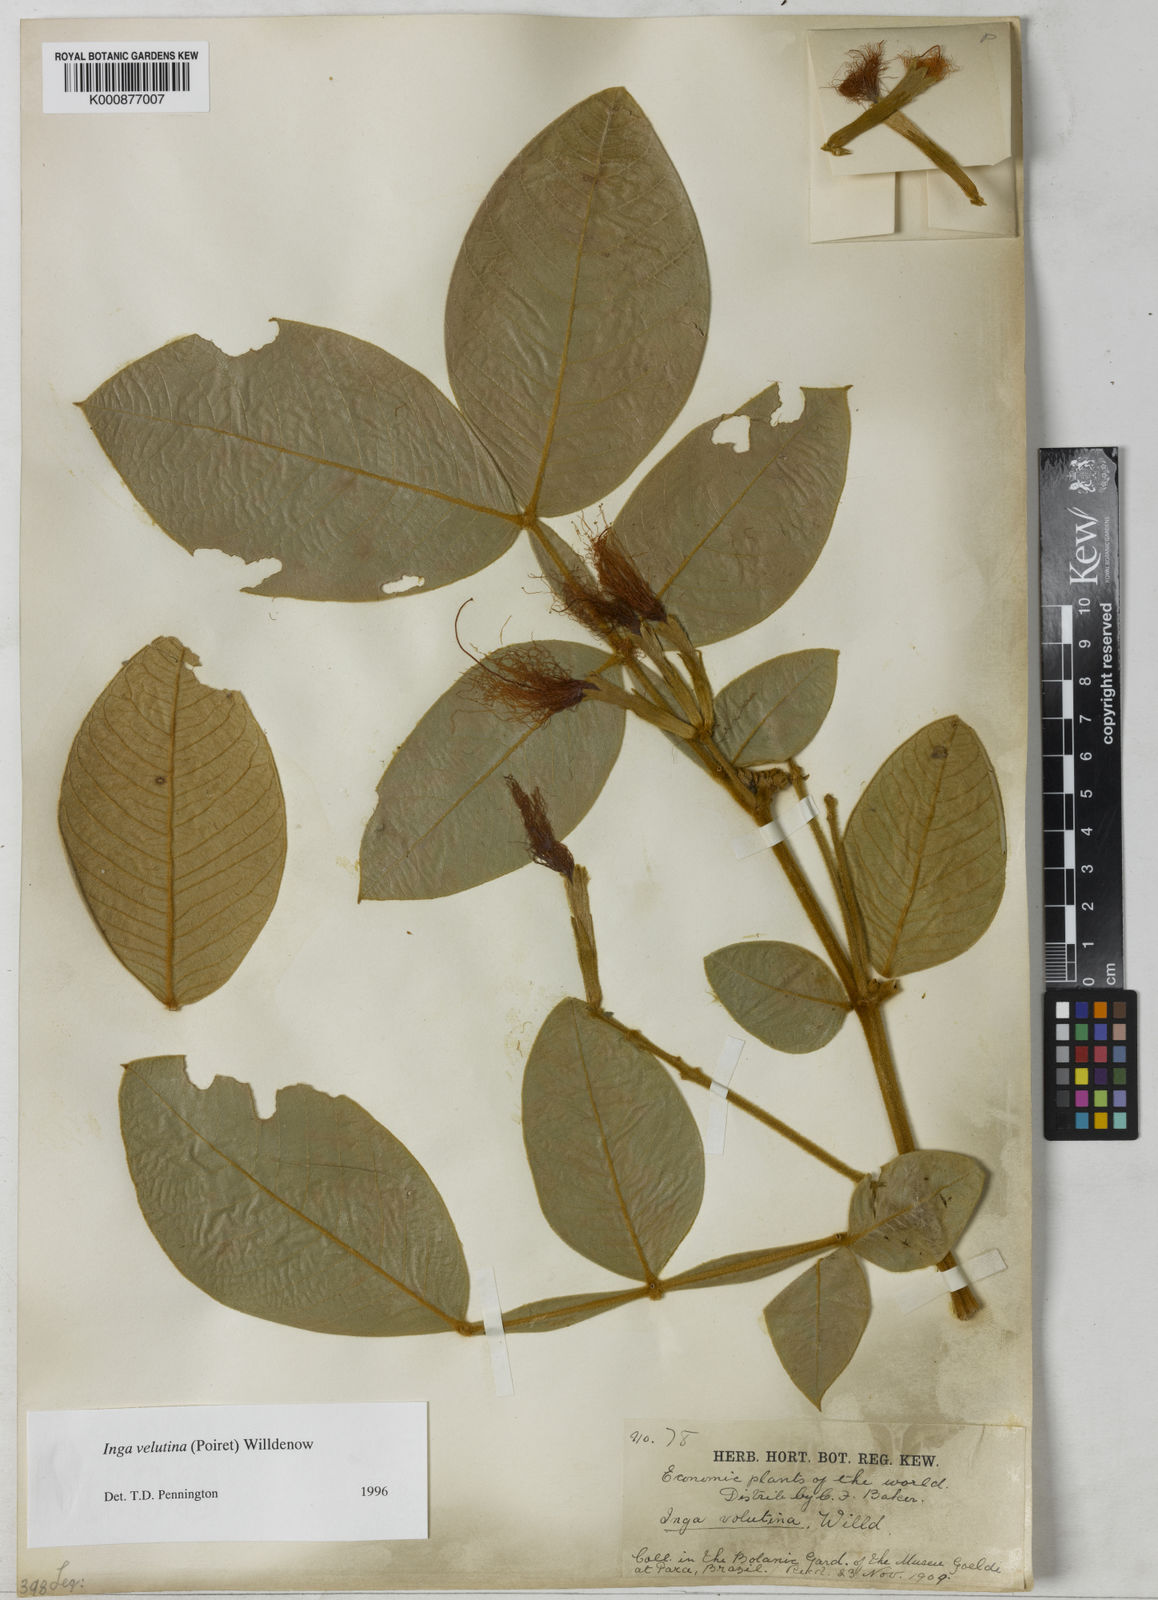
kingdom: Plantae
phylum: Tracheophyta
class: Magnoliopsida
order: Fabales
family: Fabaceae
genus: Inga
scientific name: Inga velutina
